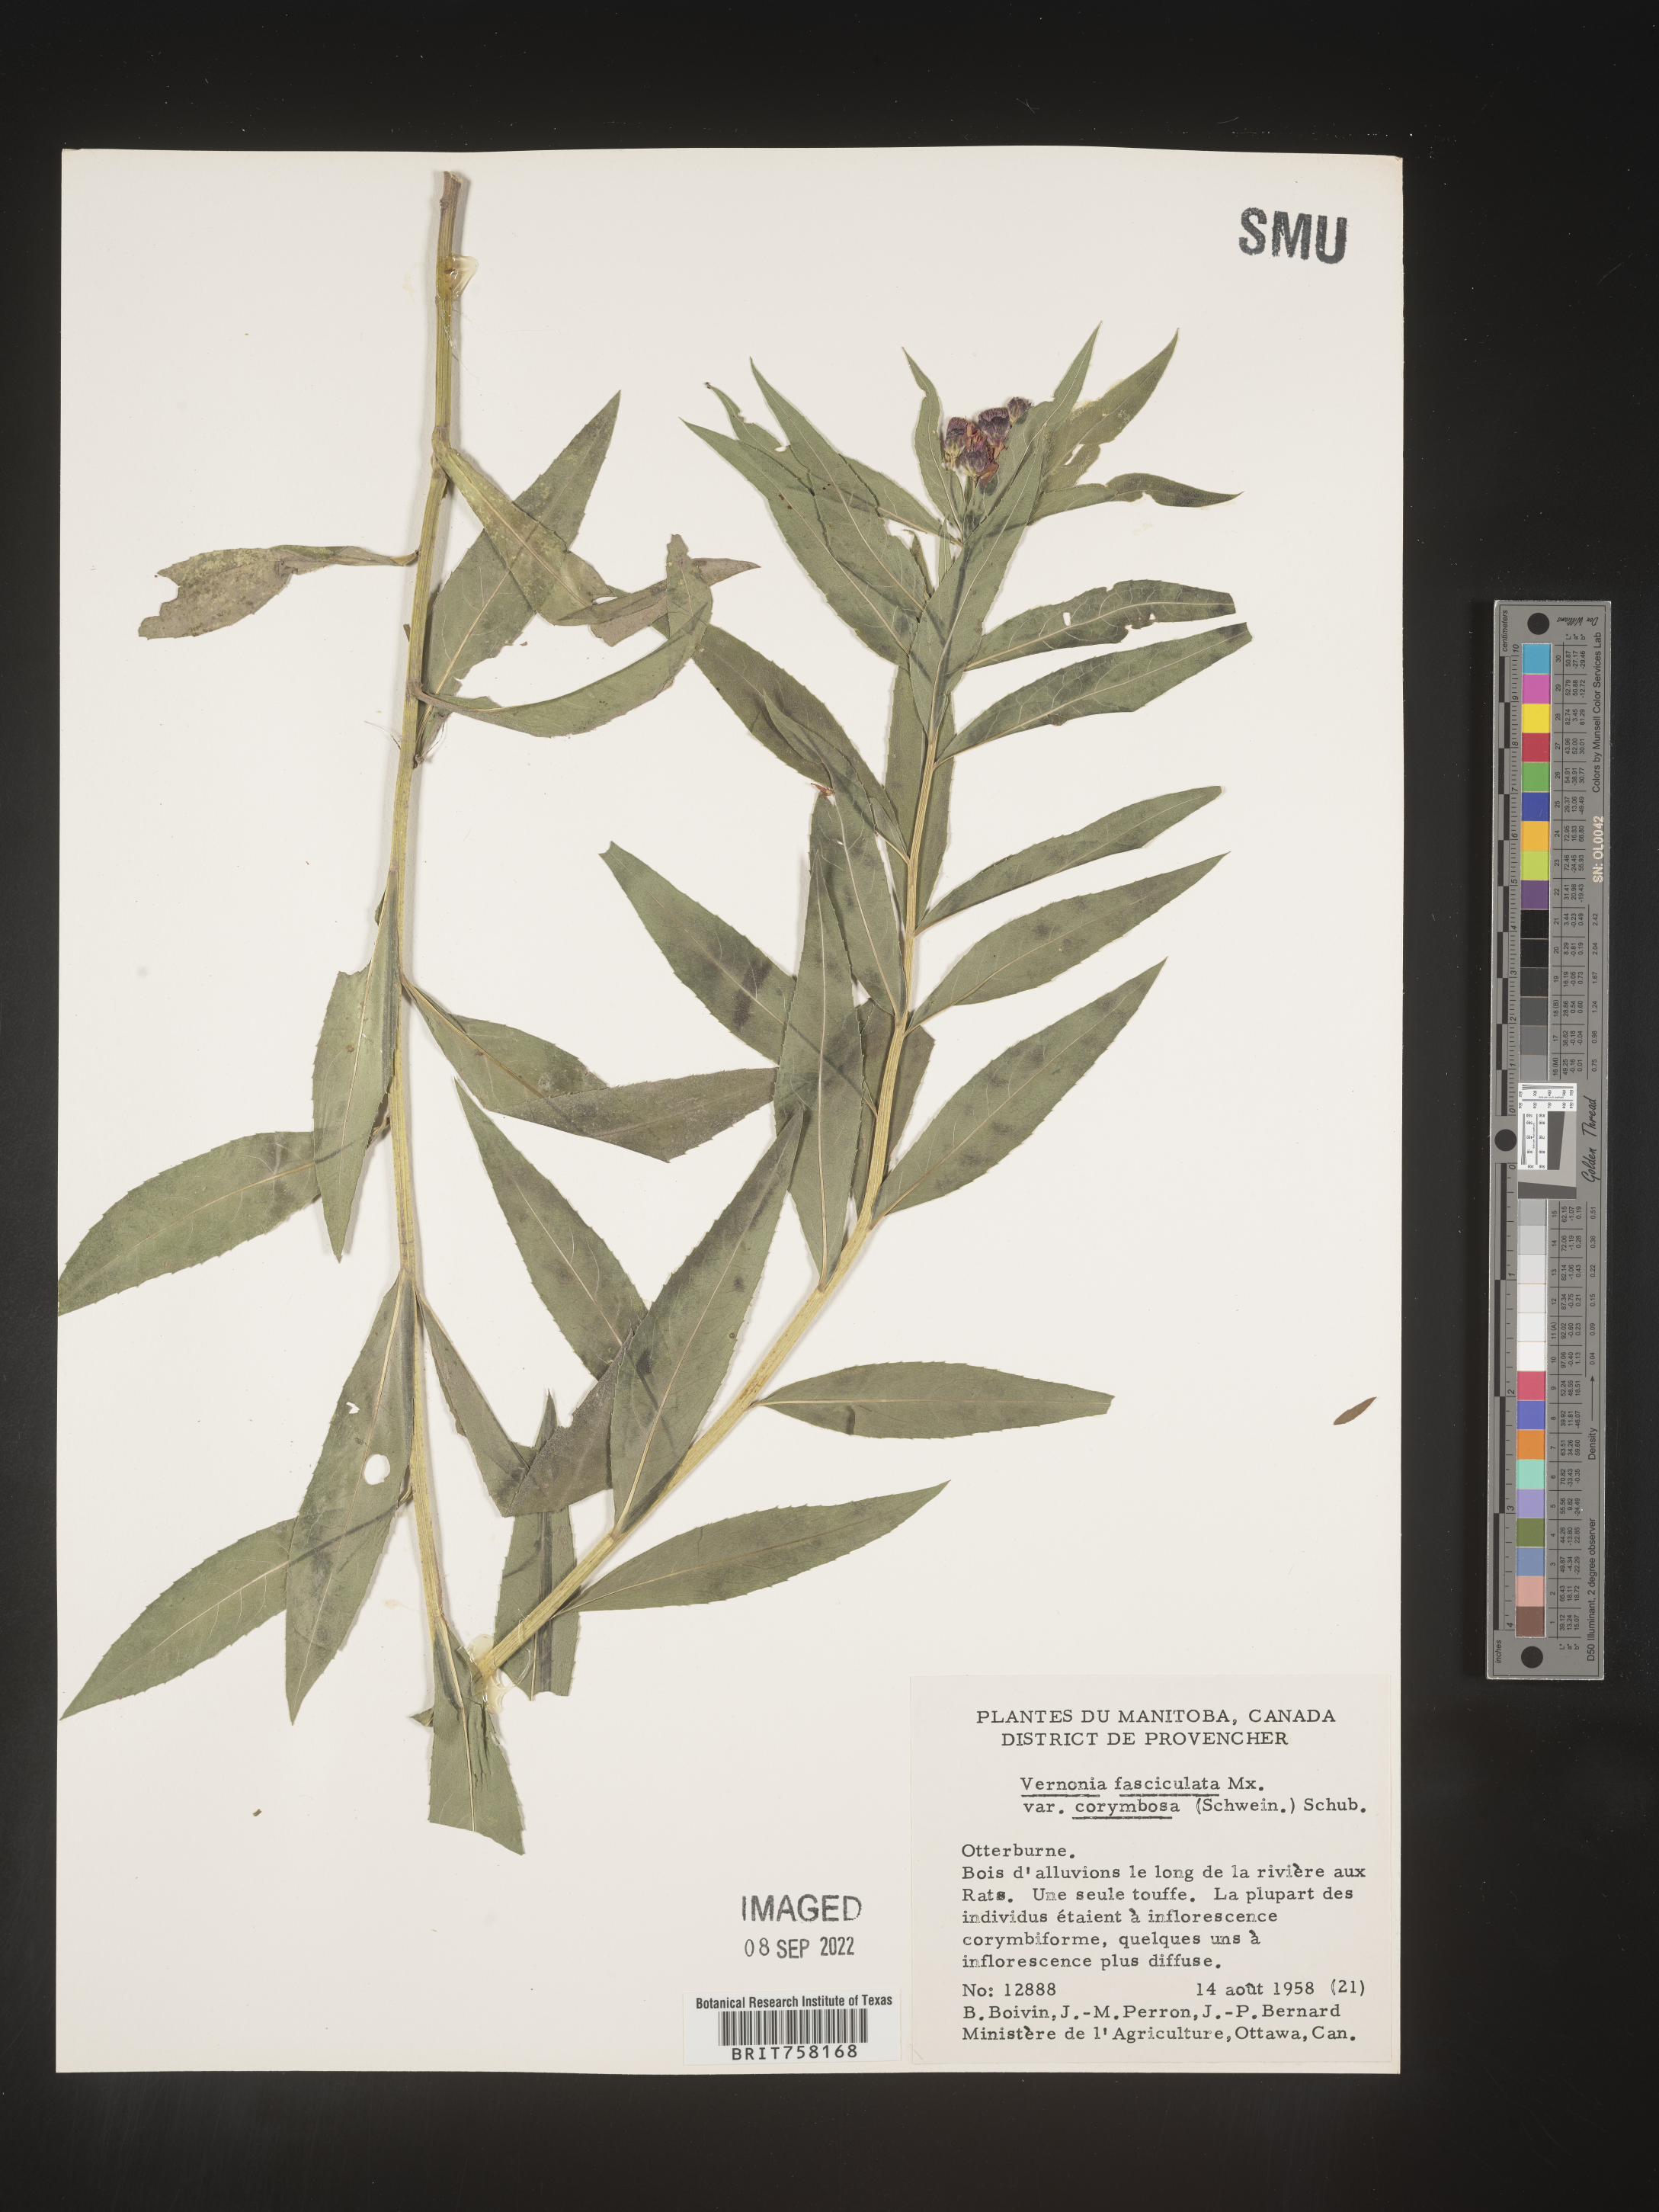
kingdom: Plantae
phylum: Tracheophyta
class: Magnoliopsida
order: Asterales
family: Asteraceae
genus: Vernonia
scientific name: Vernonia fasciculata
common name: Fascicled ironweed
